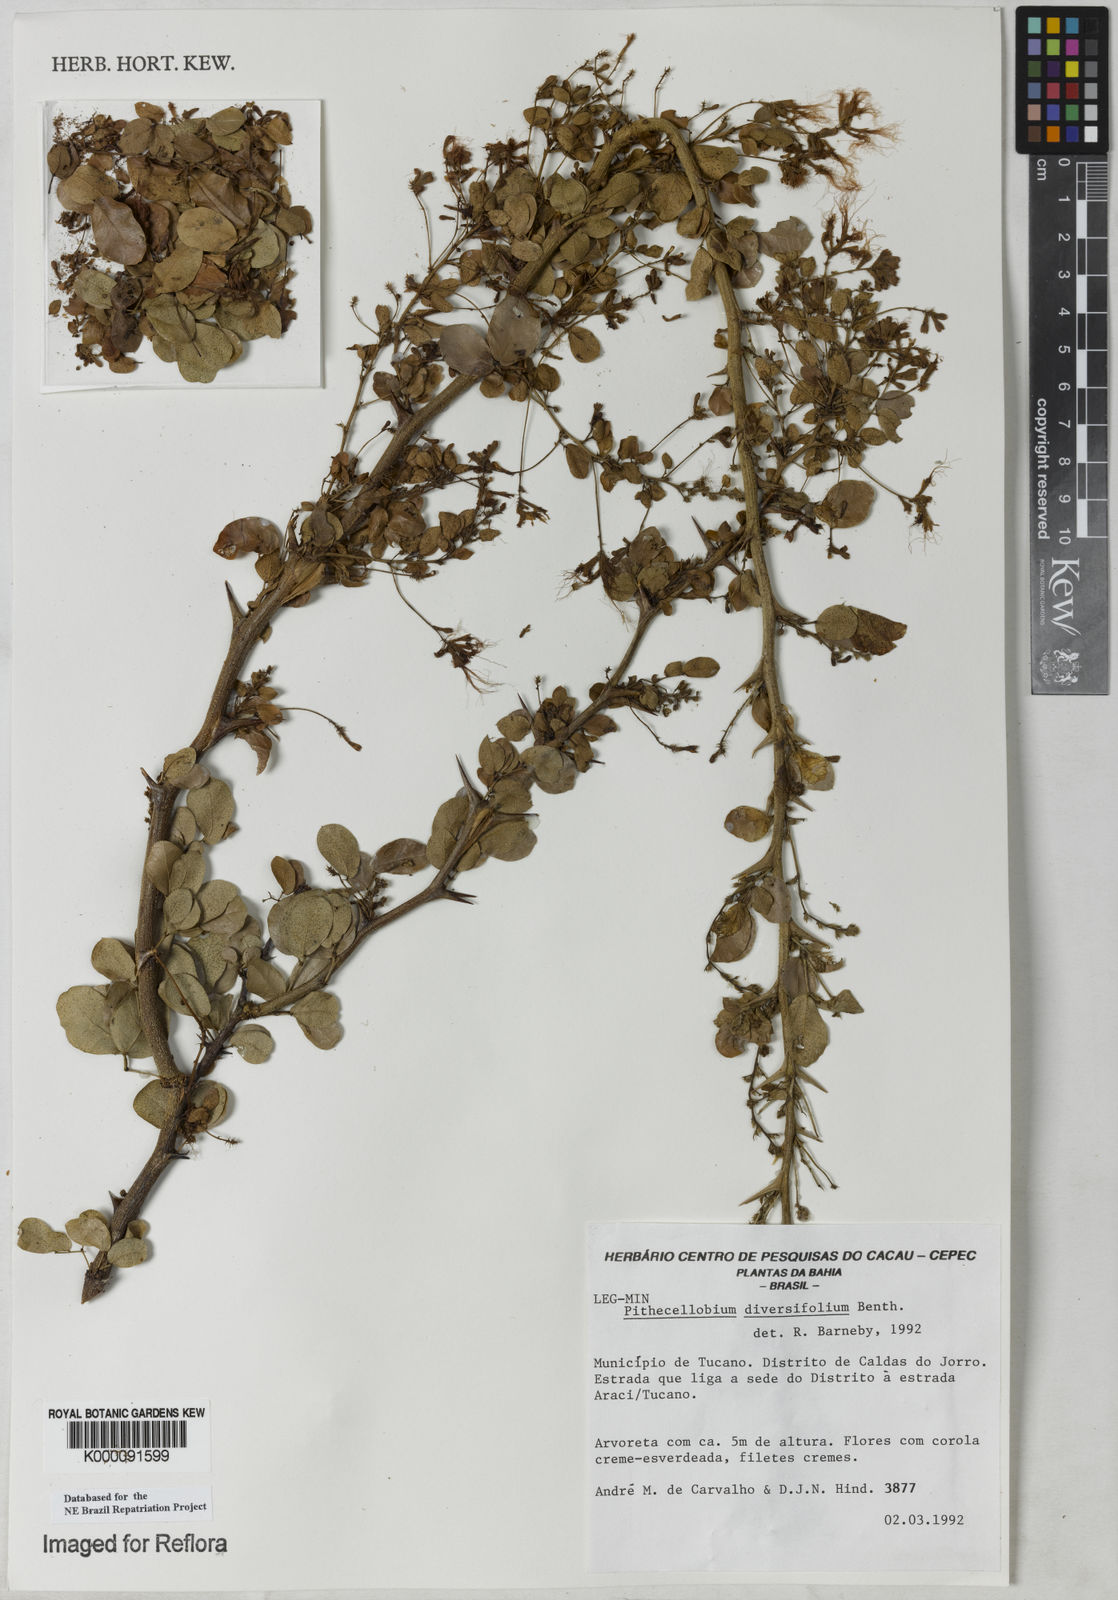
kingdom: Plantae
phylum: Tracheophyta
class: Magnoliopsida
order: Fabales
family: Fabaceae
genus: Pithecellobium
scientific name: Pithecellobium diversifolium
